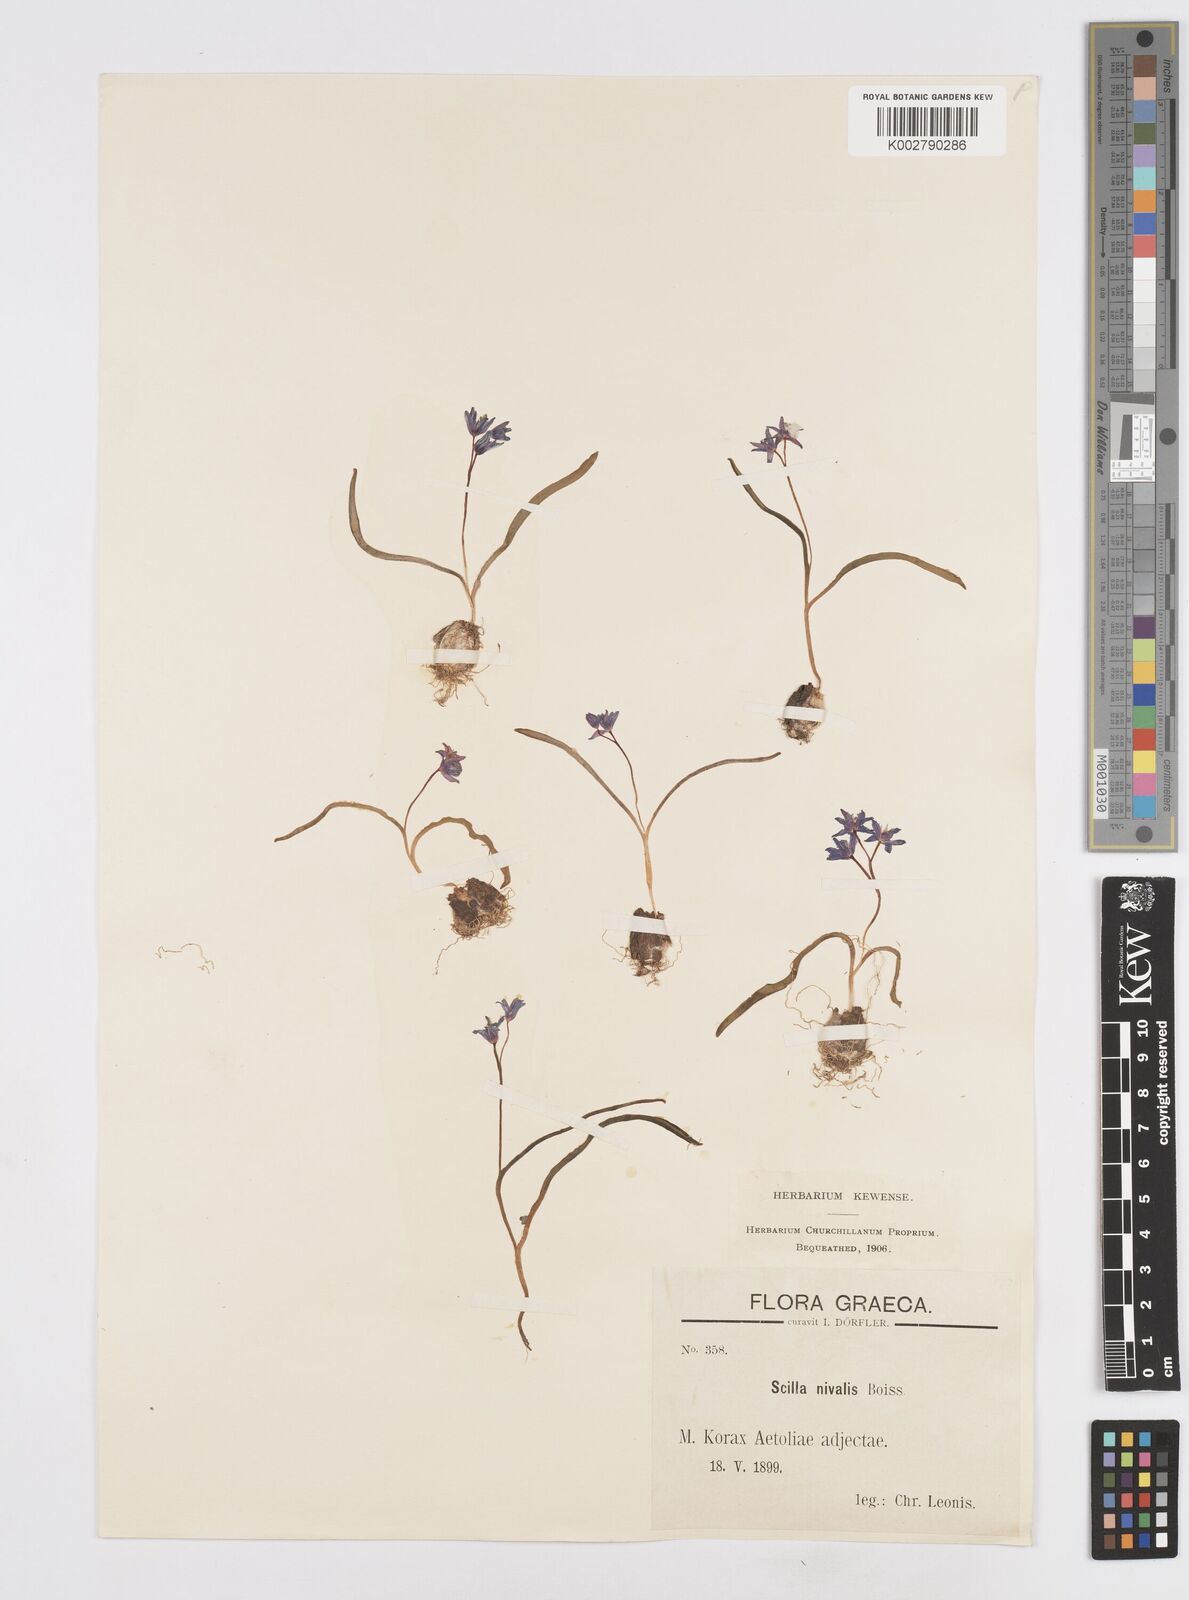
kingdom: Plantae
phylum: Tracheophyta
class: Liliopsida
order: Asparagales
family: Asparagaceae
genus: Scilla
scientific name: Scilla nivalis
